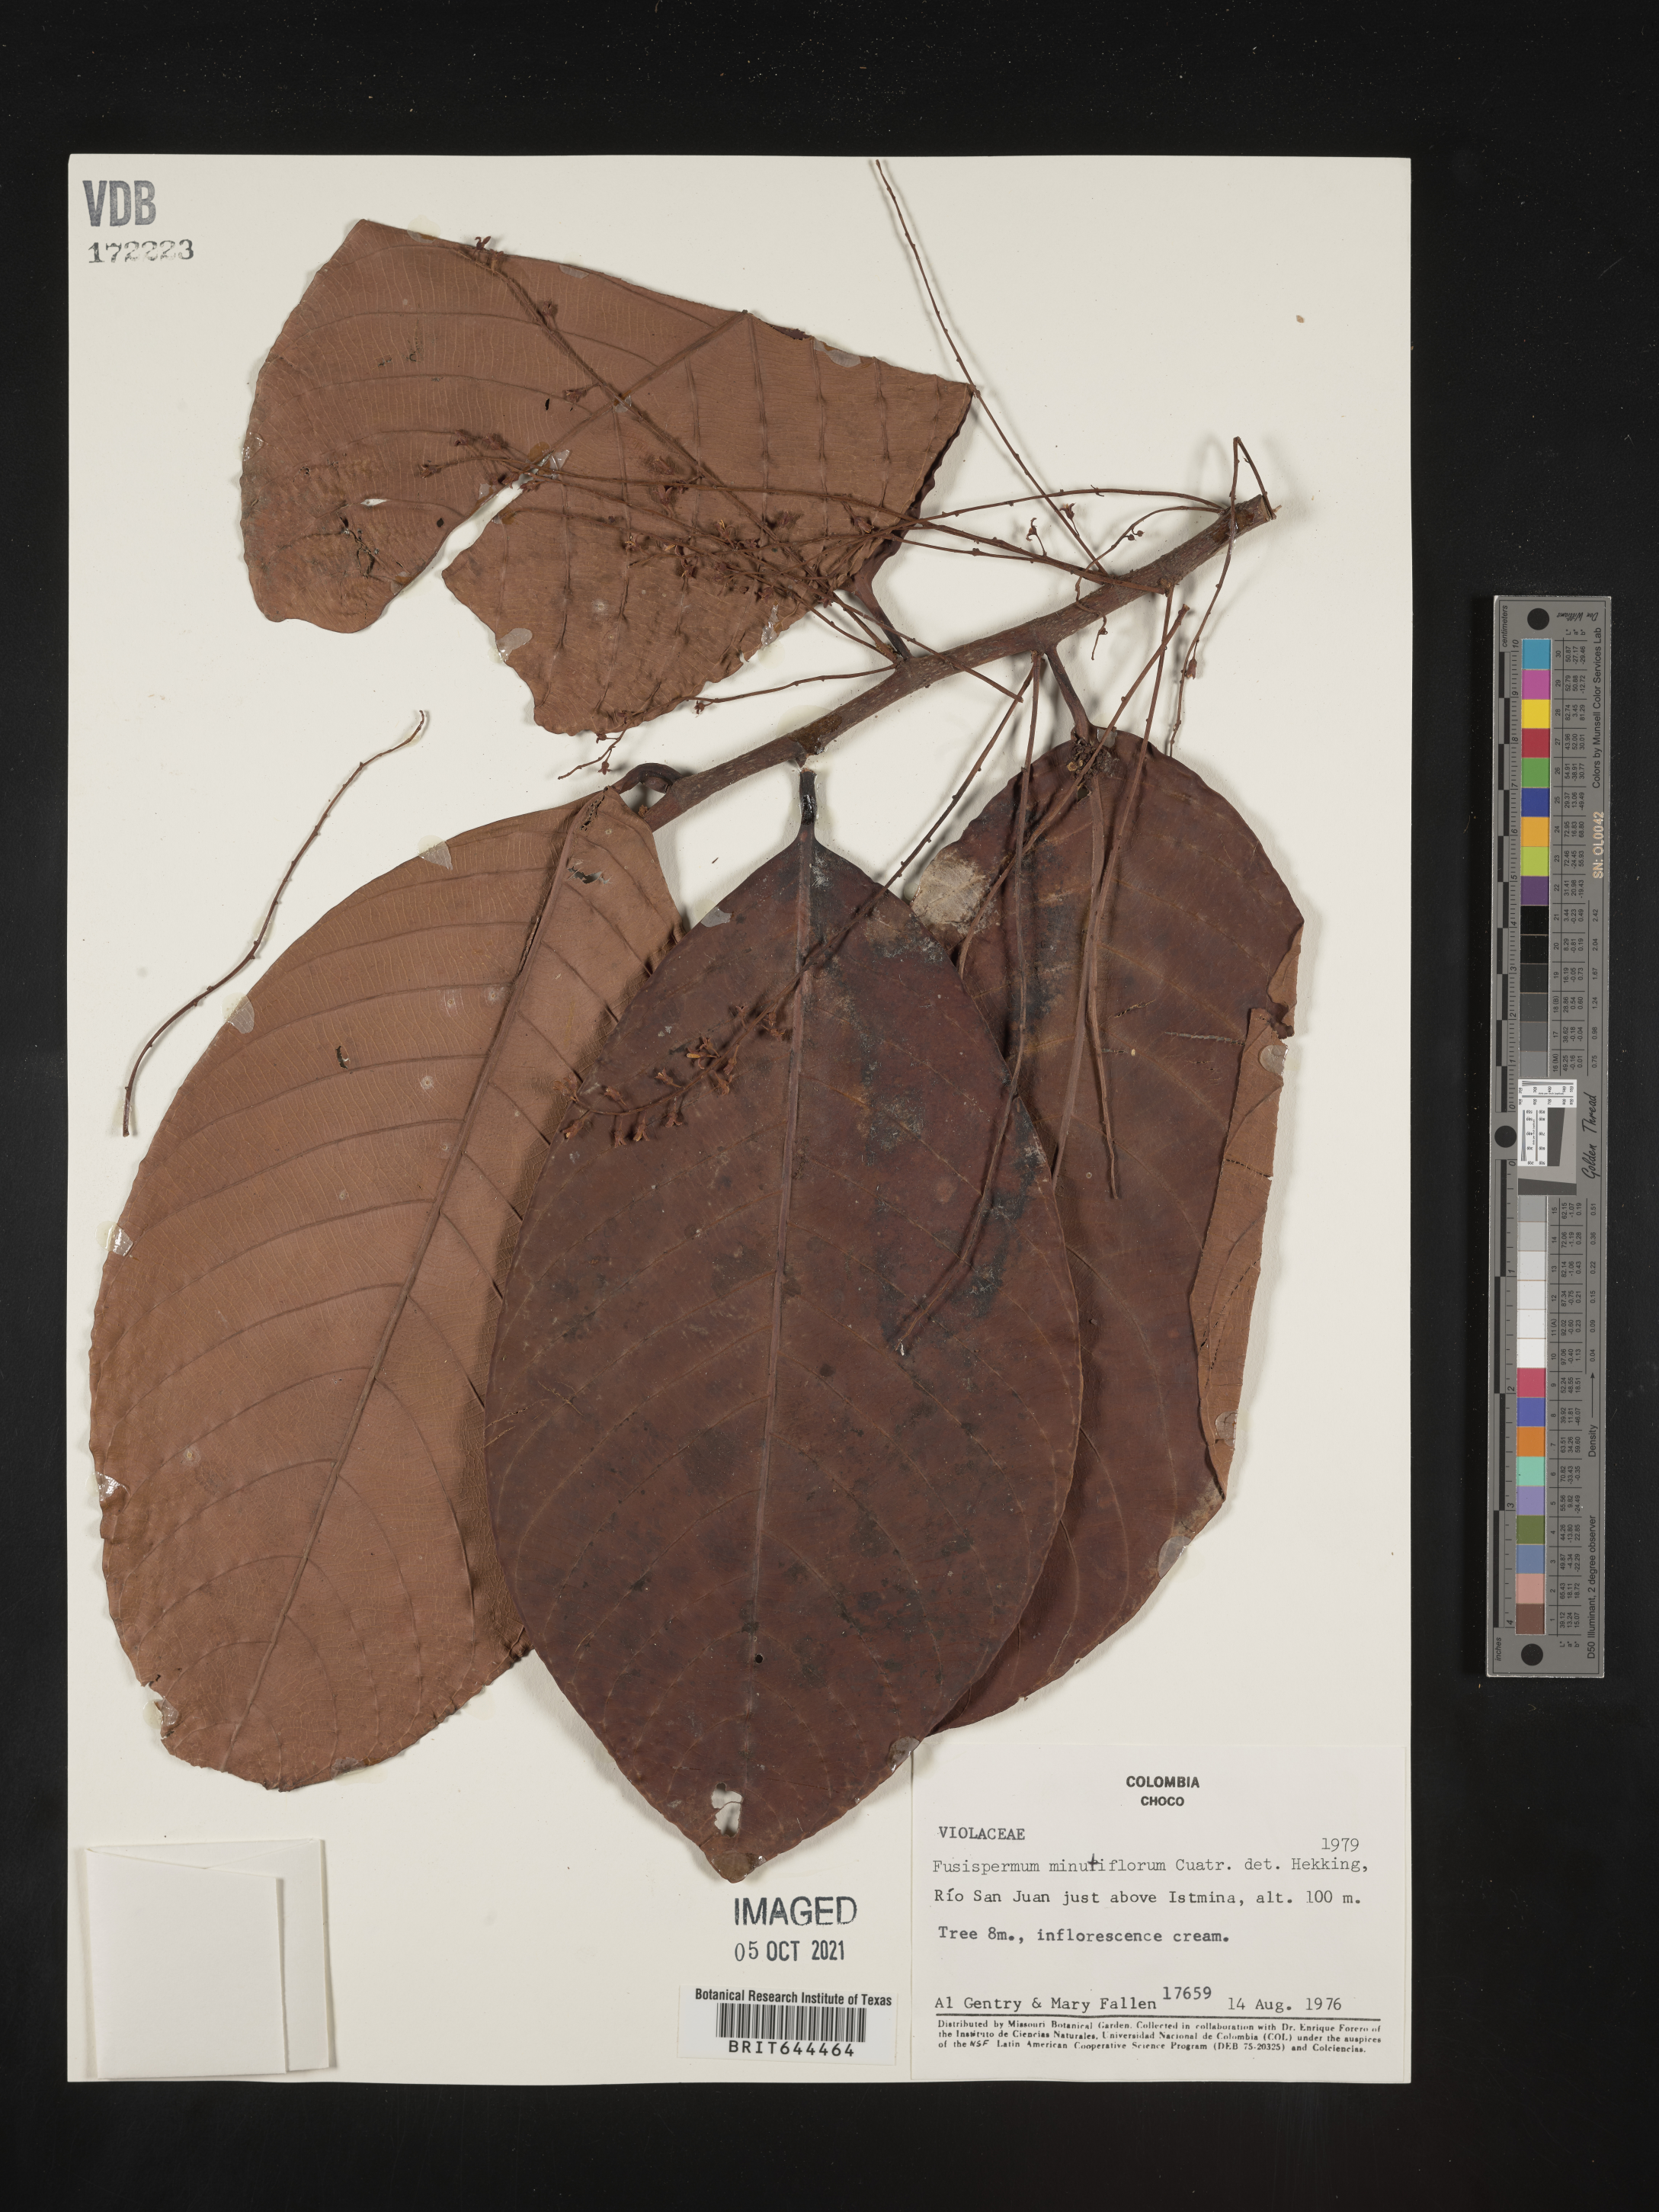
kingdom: Plantae
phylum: Tracheophyta
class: Magnoliopsida
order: Malpighiales
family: Violaceae
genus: Viola
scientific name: Viola
